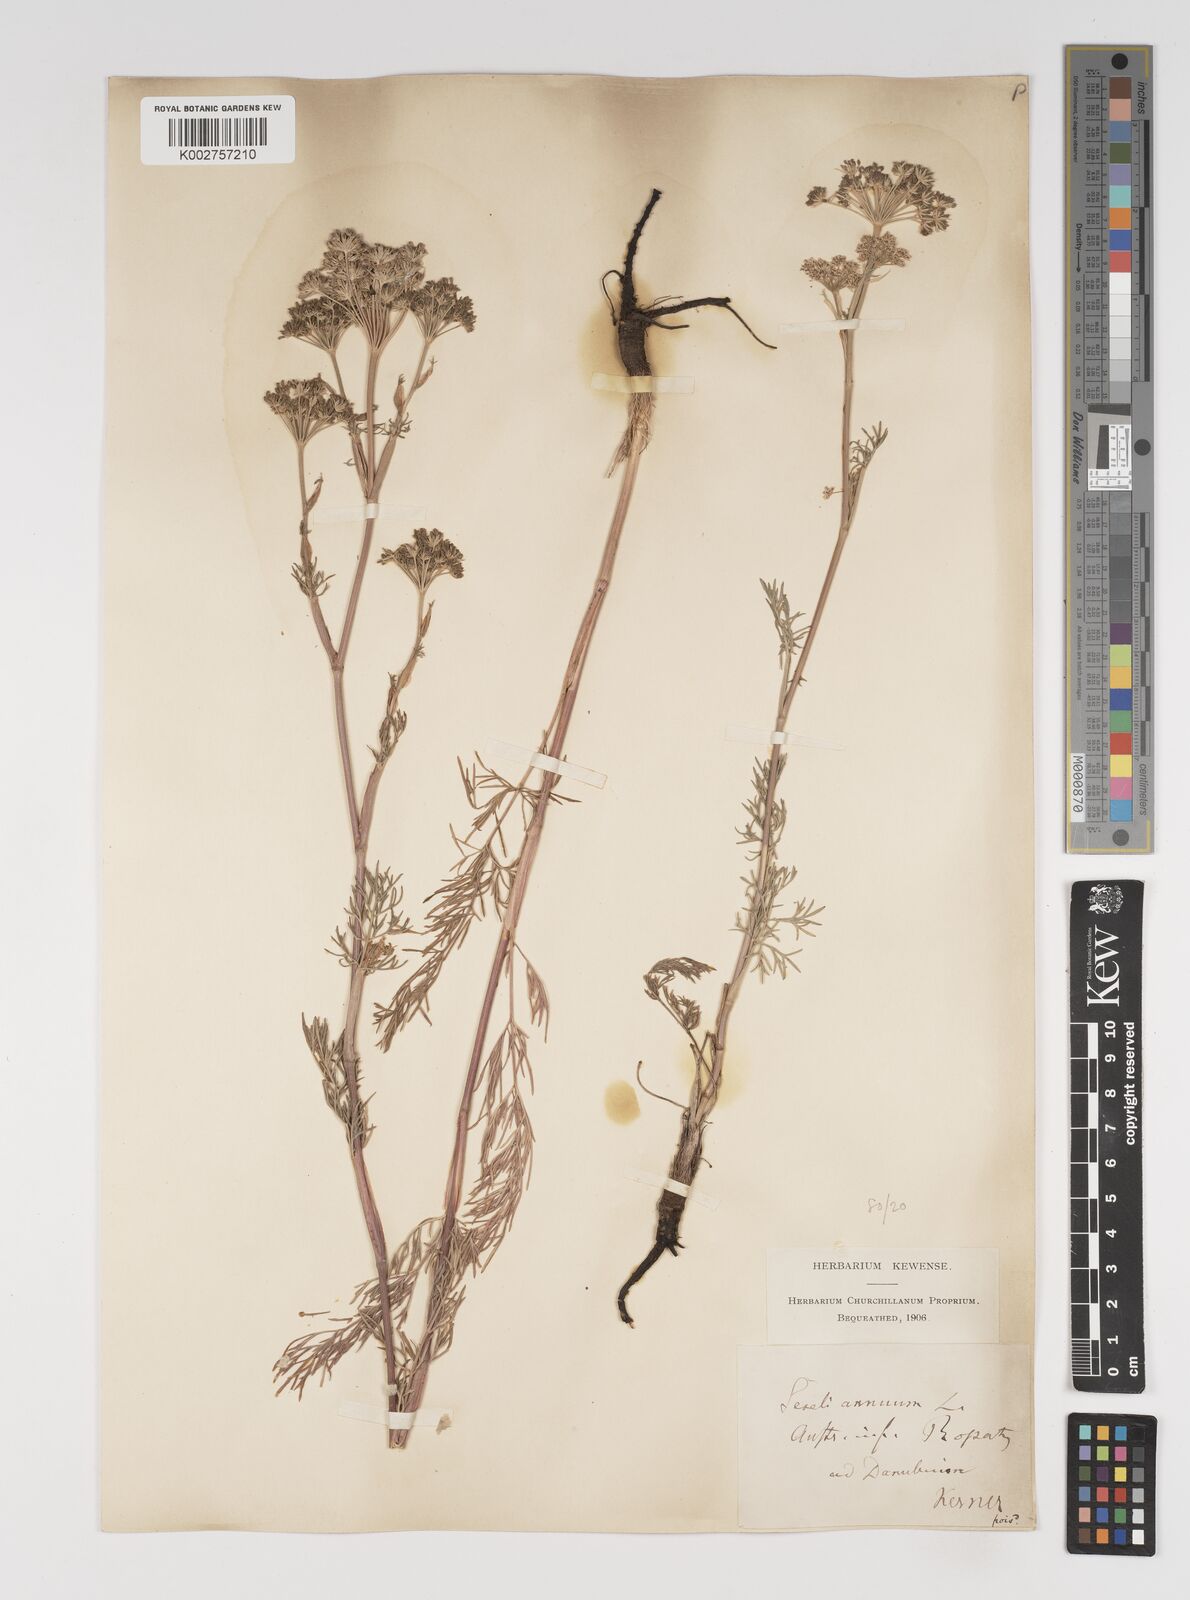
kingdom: Plantae
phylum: Tracheophyta
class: Magnoliopsida
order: Apiales
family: Apiaceae
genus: Seseli
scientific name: Seseli annuum
